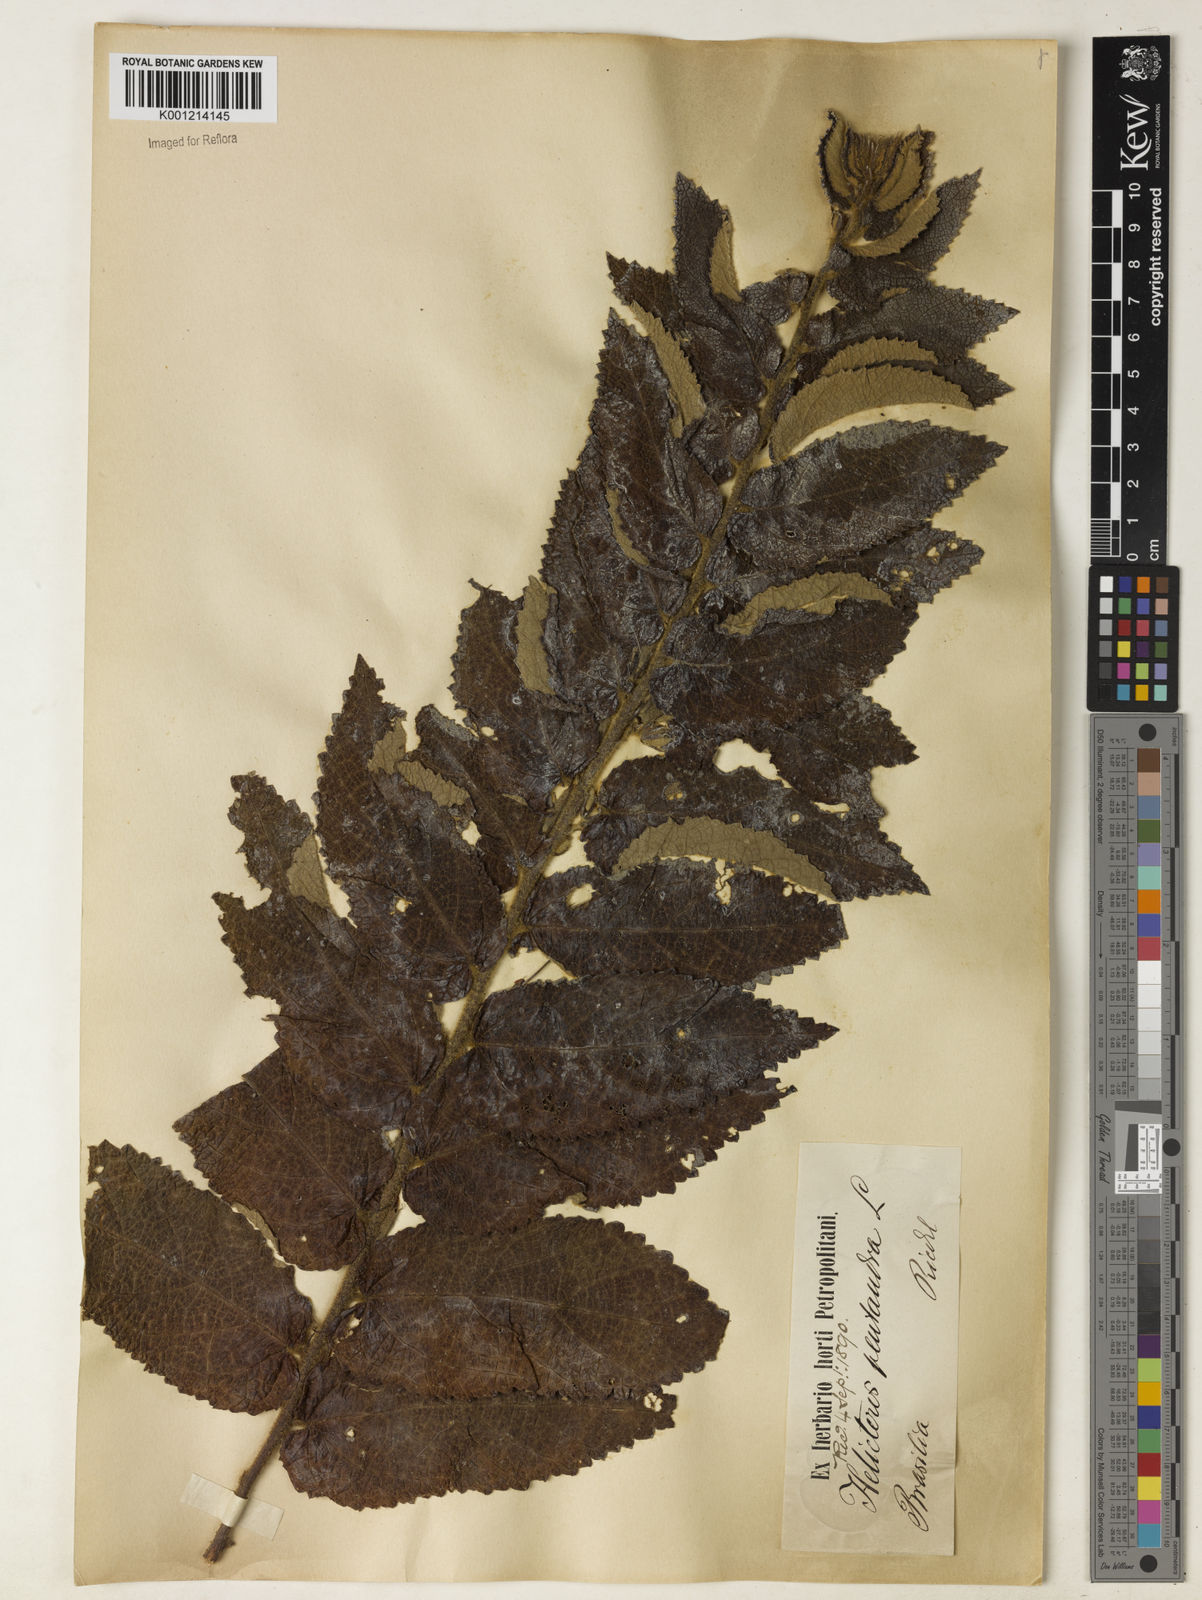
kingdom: Plantae
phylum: Tracheophyta
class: Magnoliopsida
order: Malvales
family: Malvaceae
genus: Helicteres
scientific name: Helicteres pentandra
